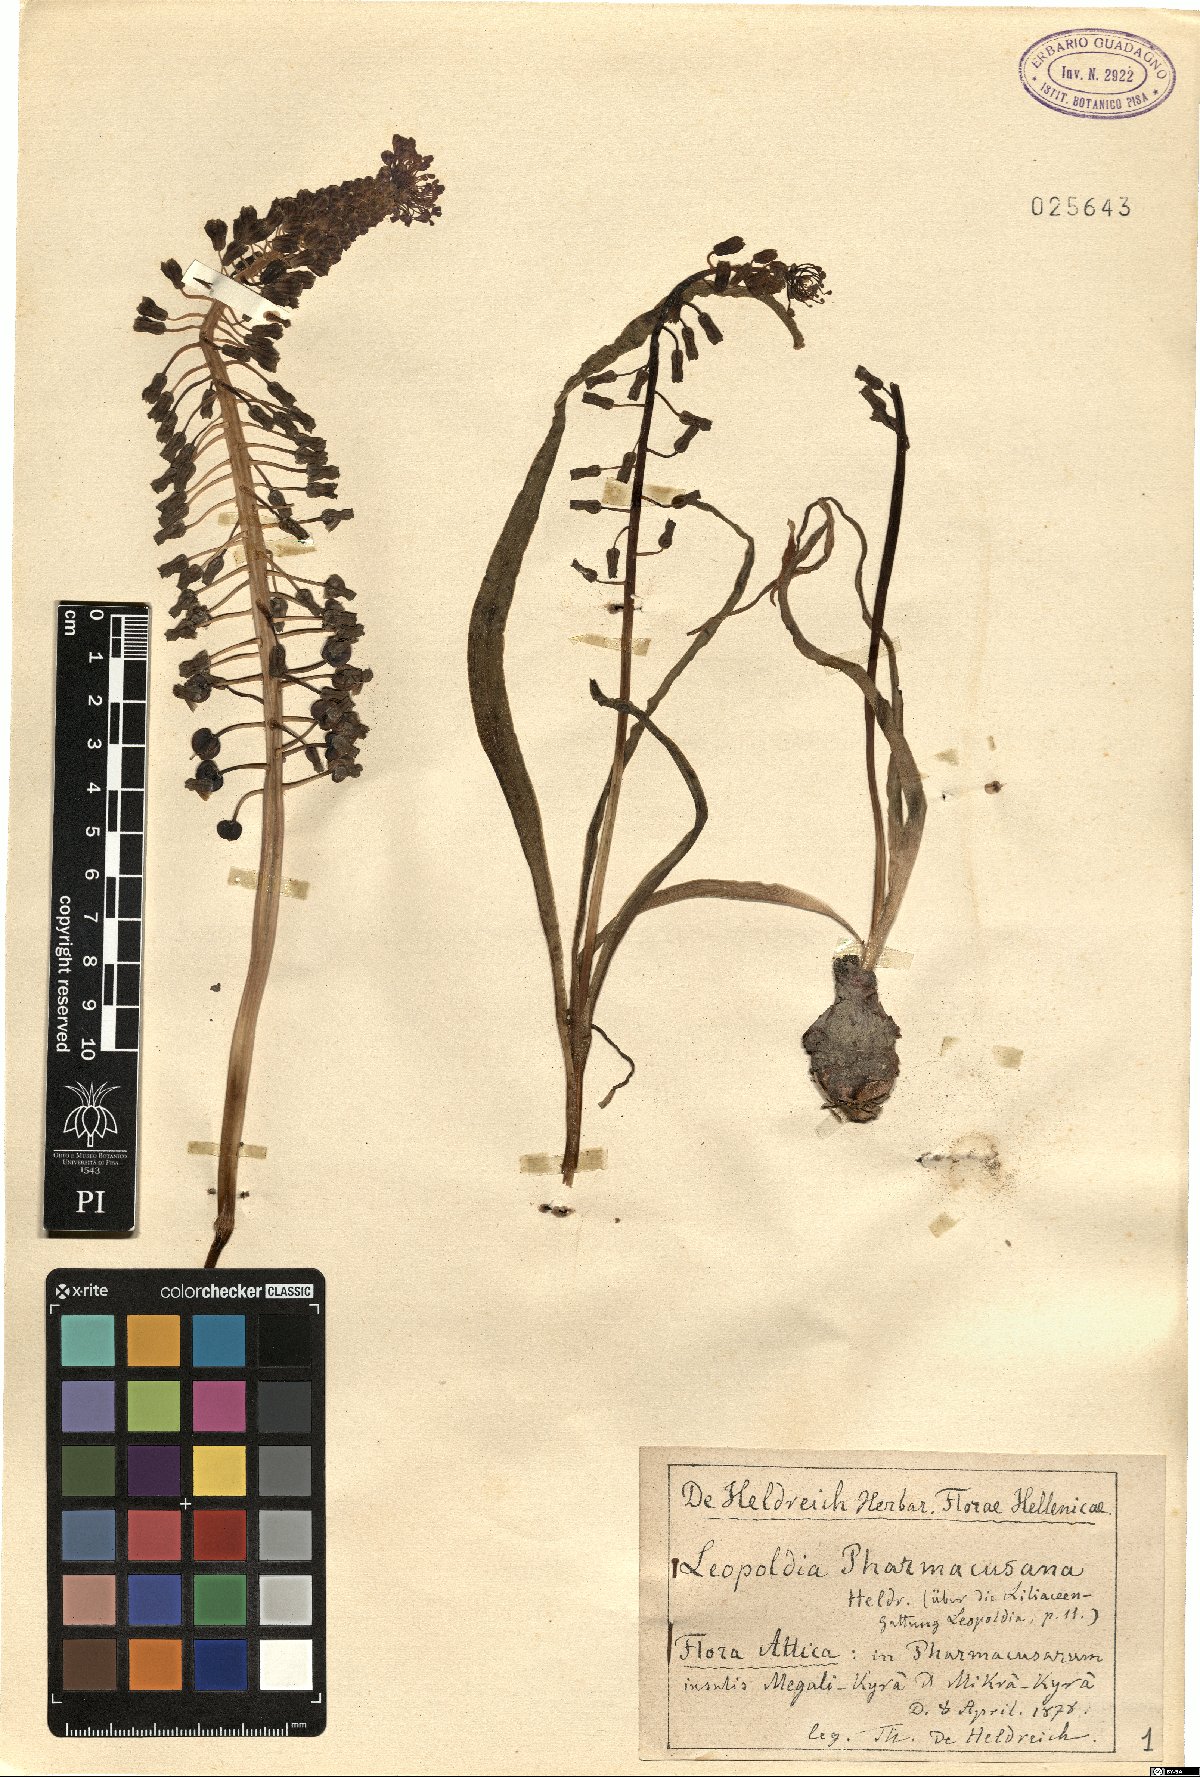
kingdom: Plantae
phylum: Tracheophyta
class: Liliopsida
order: Asparagales
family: Asparagaceae
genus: Muscari
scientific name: Muscari comosum
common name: Tassel hyacinth
